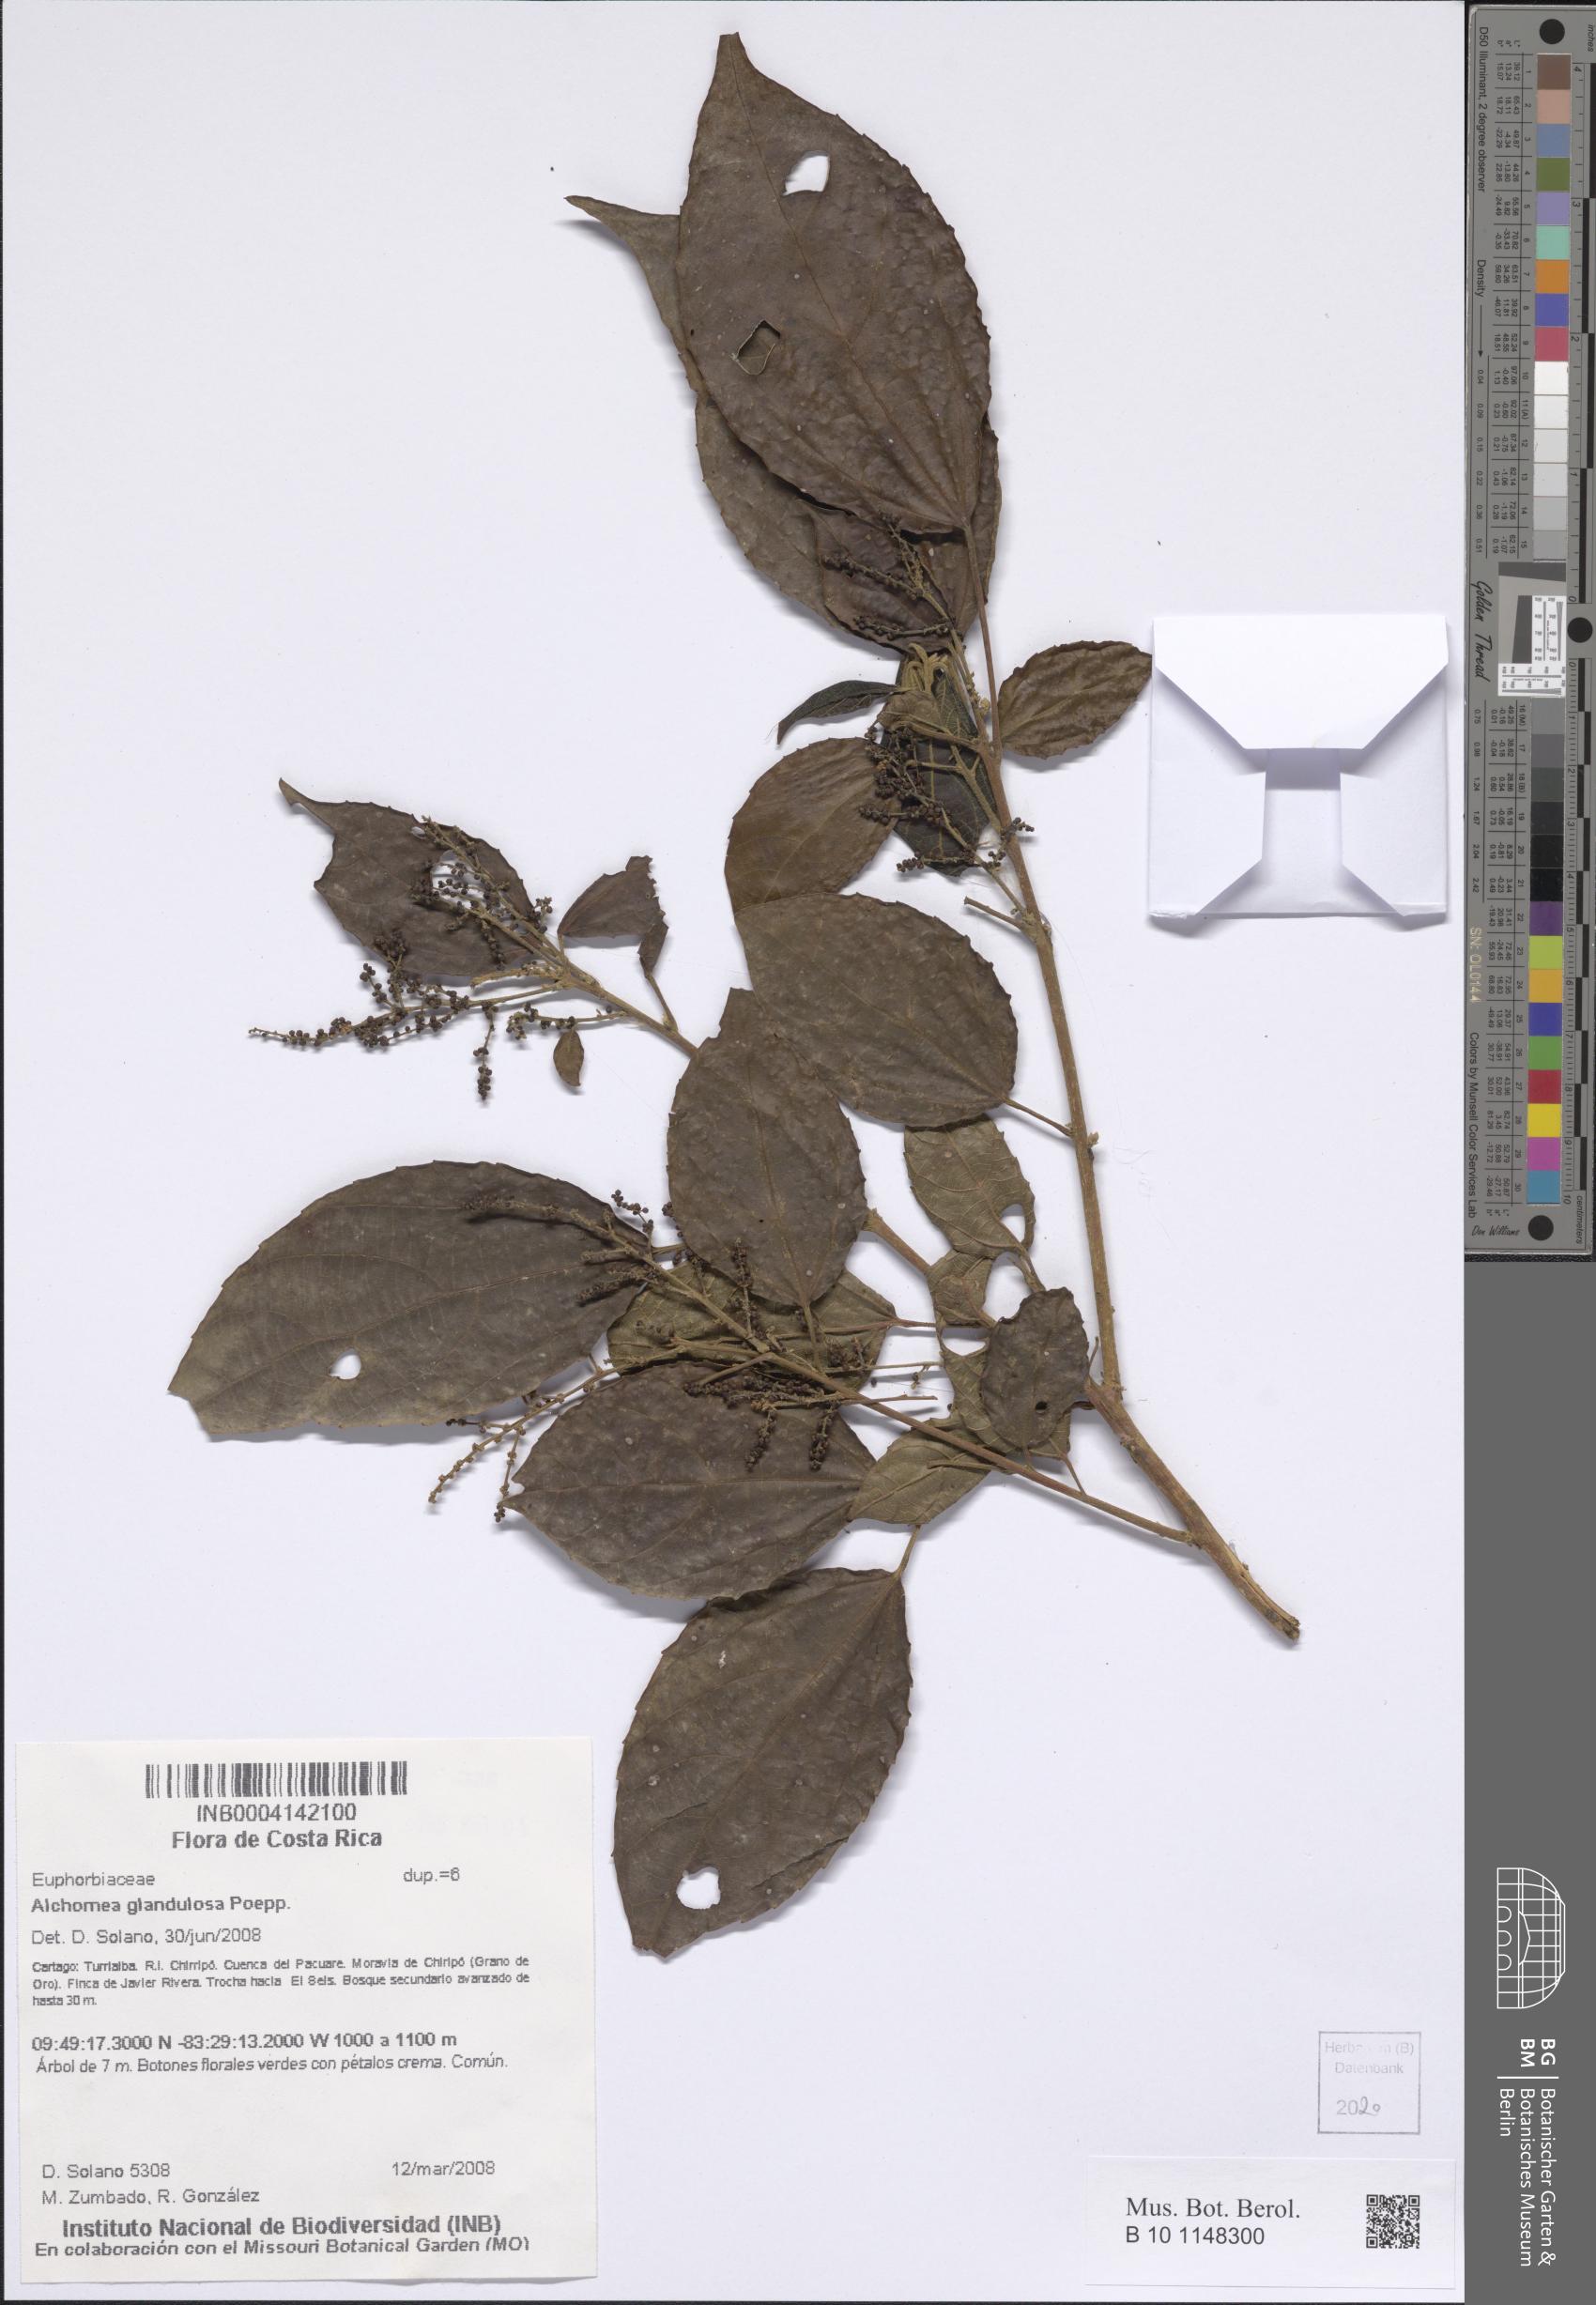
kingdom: Plantae
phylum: Tracheophyta
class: Magnoliopsida
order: Malpighiales
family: Euphorbiaceae
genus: Alchornea
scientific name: Alchornea glandulosa
